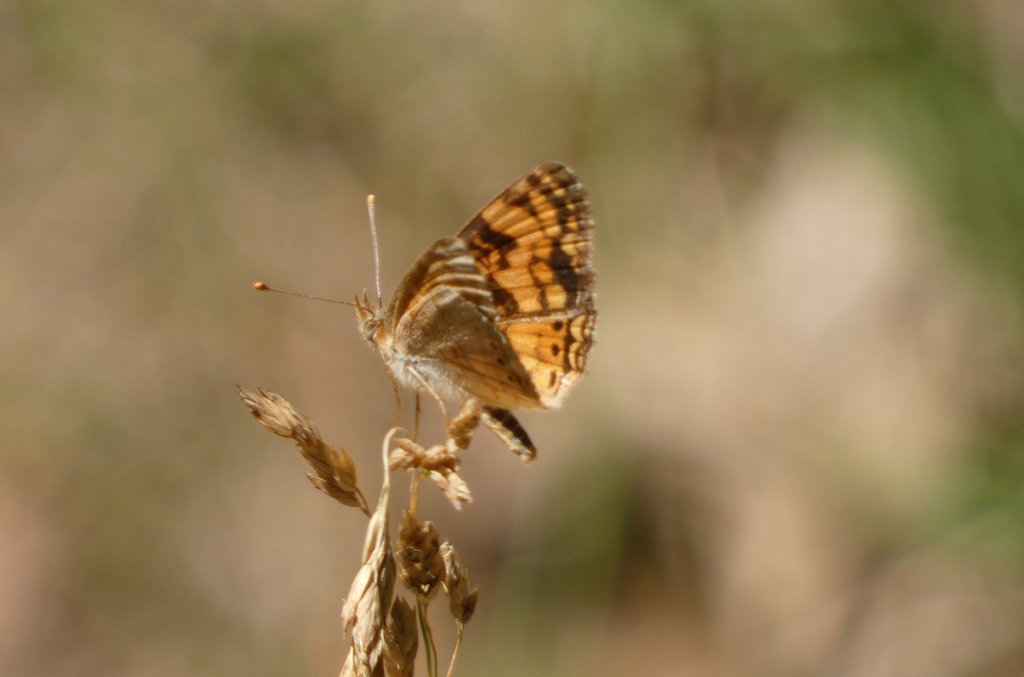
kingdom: Animalia
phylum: Arthropoda
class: Insecta
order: Lepidoptera
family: Nymphalidae
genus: Eresia
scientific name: Eresia aveyrona
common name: Mylitta Crescent
